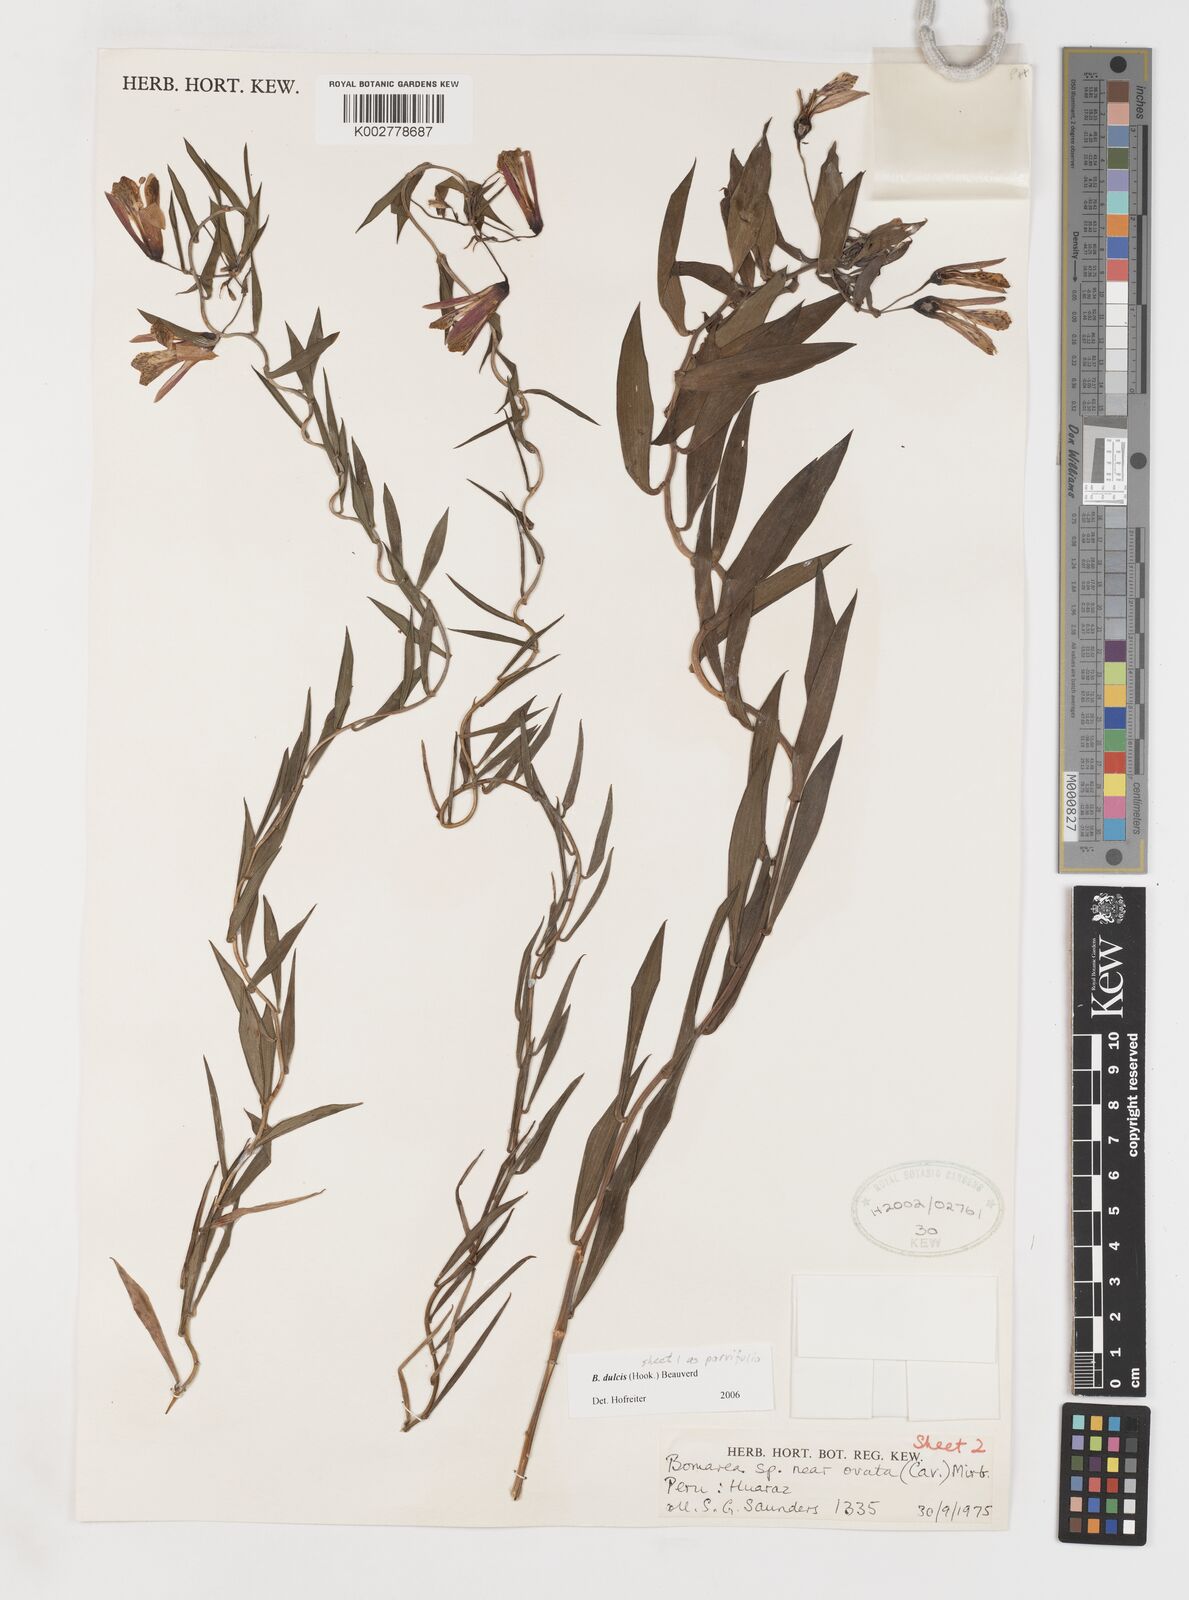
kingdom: Plantae
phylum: Tracheophyta
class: Liliopsida
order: Liliales
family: Alstroemeriaceae
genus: Bomarea
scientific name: Bomarea parvifolia
